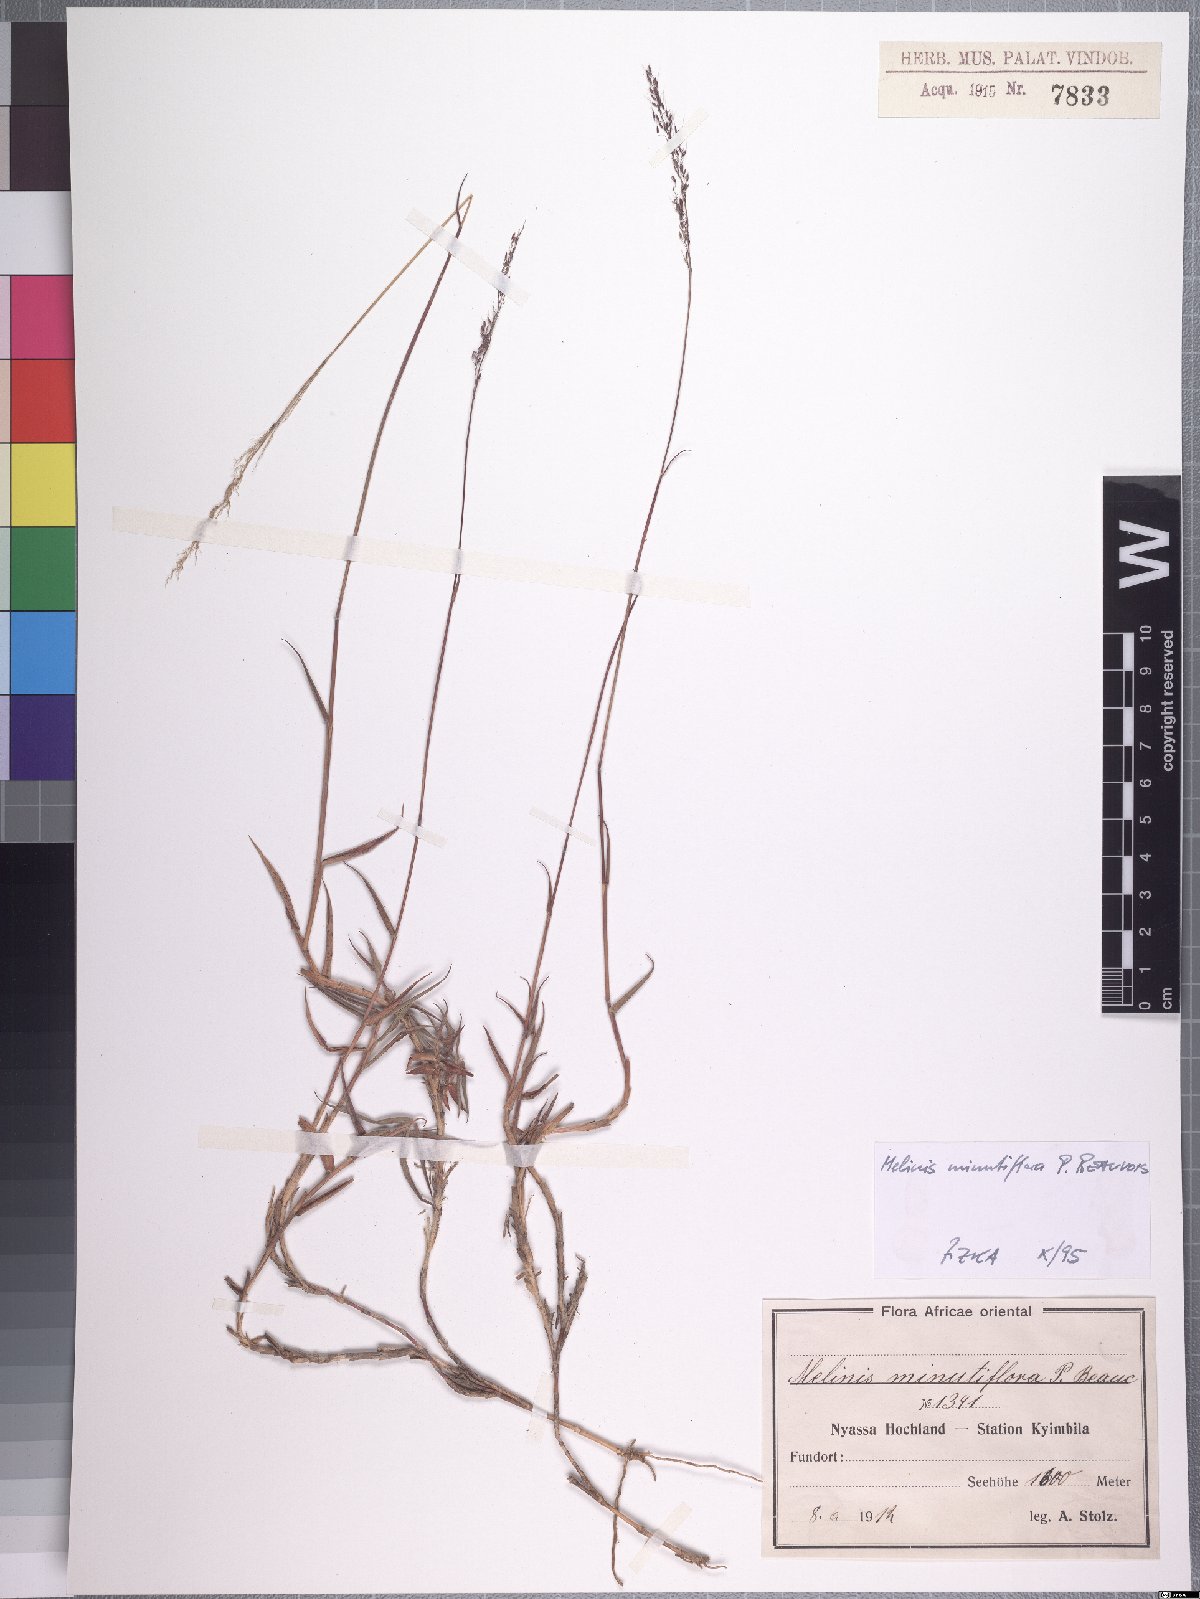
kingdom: Plantae
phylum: Tracheophyta
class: Liliopsida
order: Poales
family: Poaceae
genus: Melinis
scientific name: Melinis minutiflora
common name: Molassesgrass
